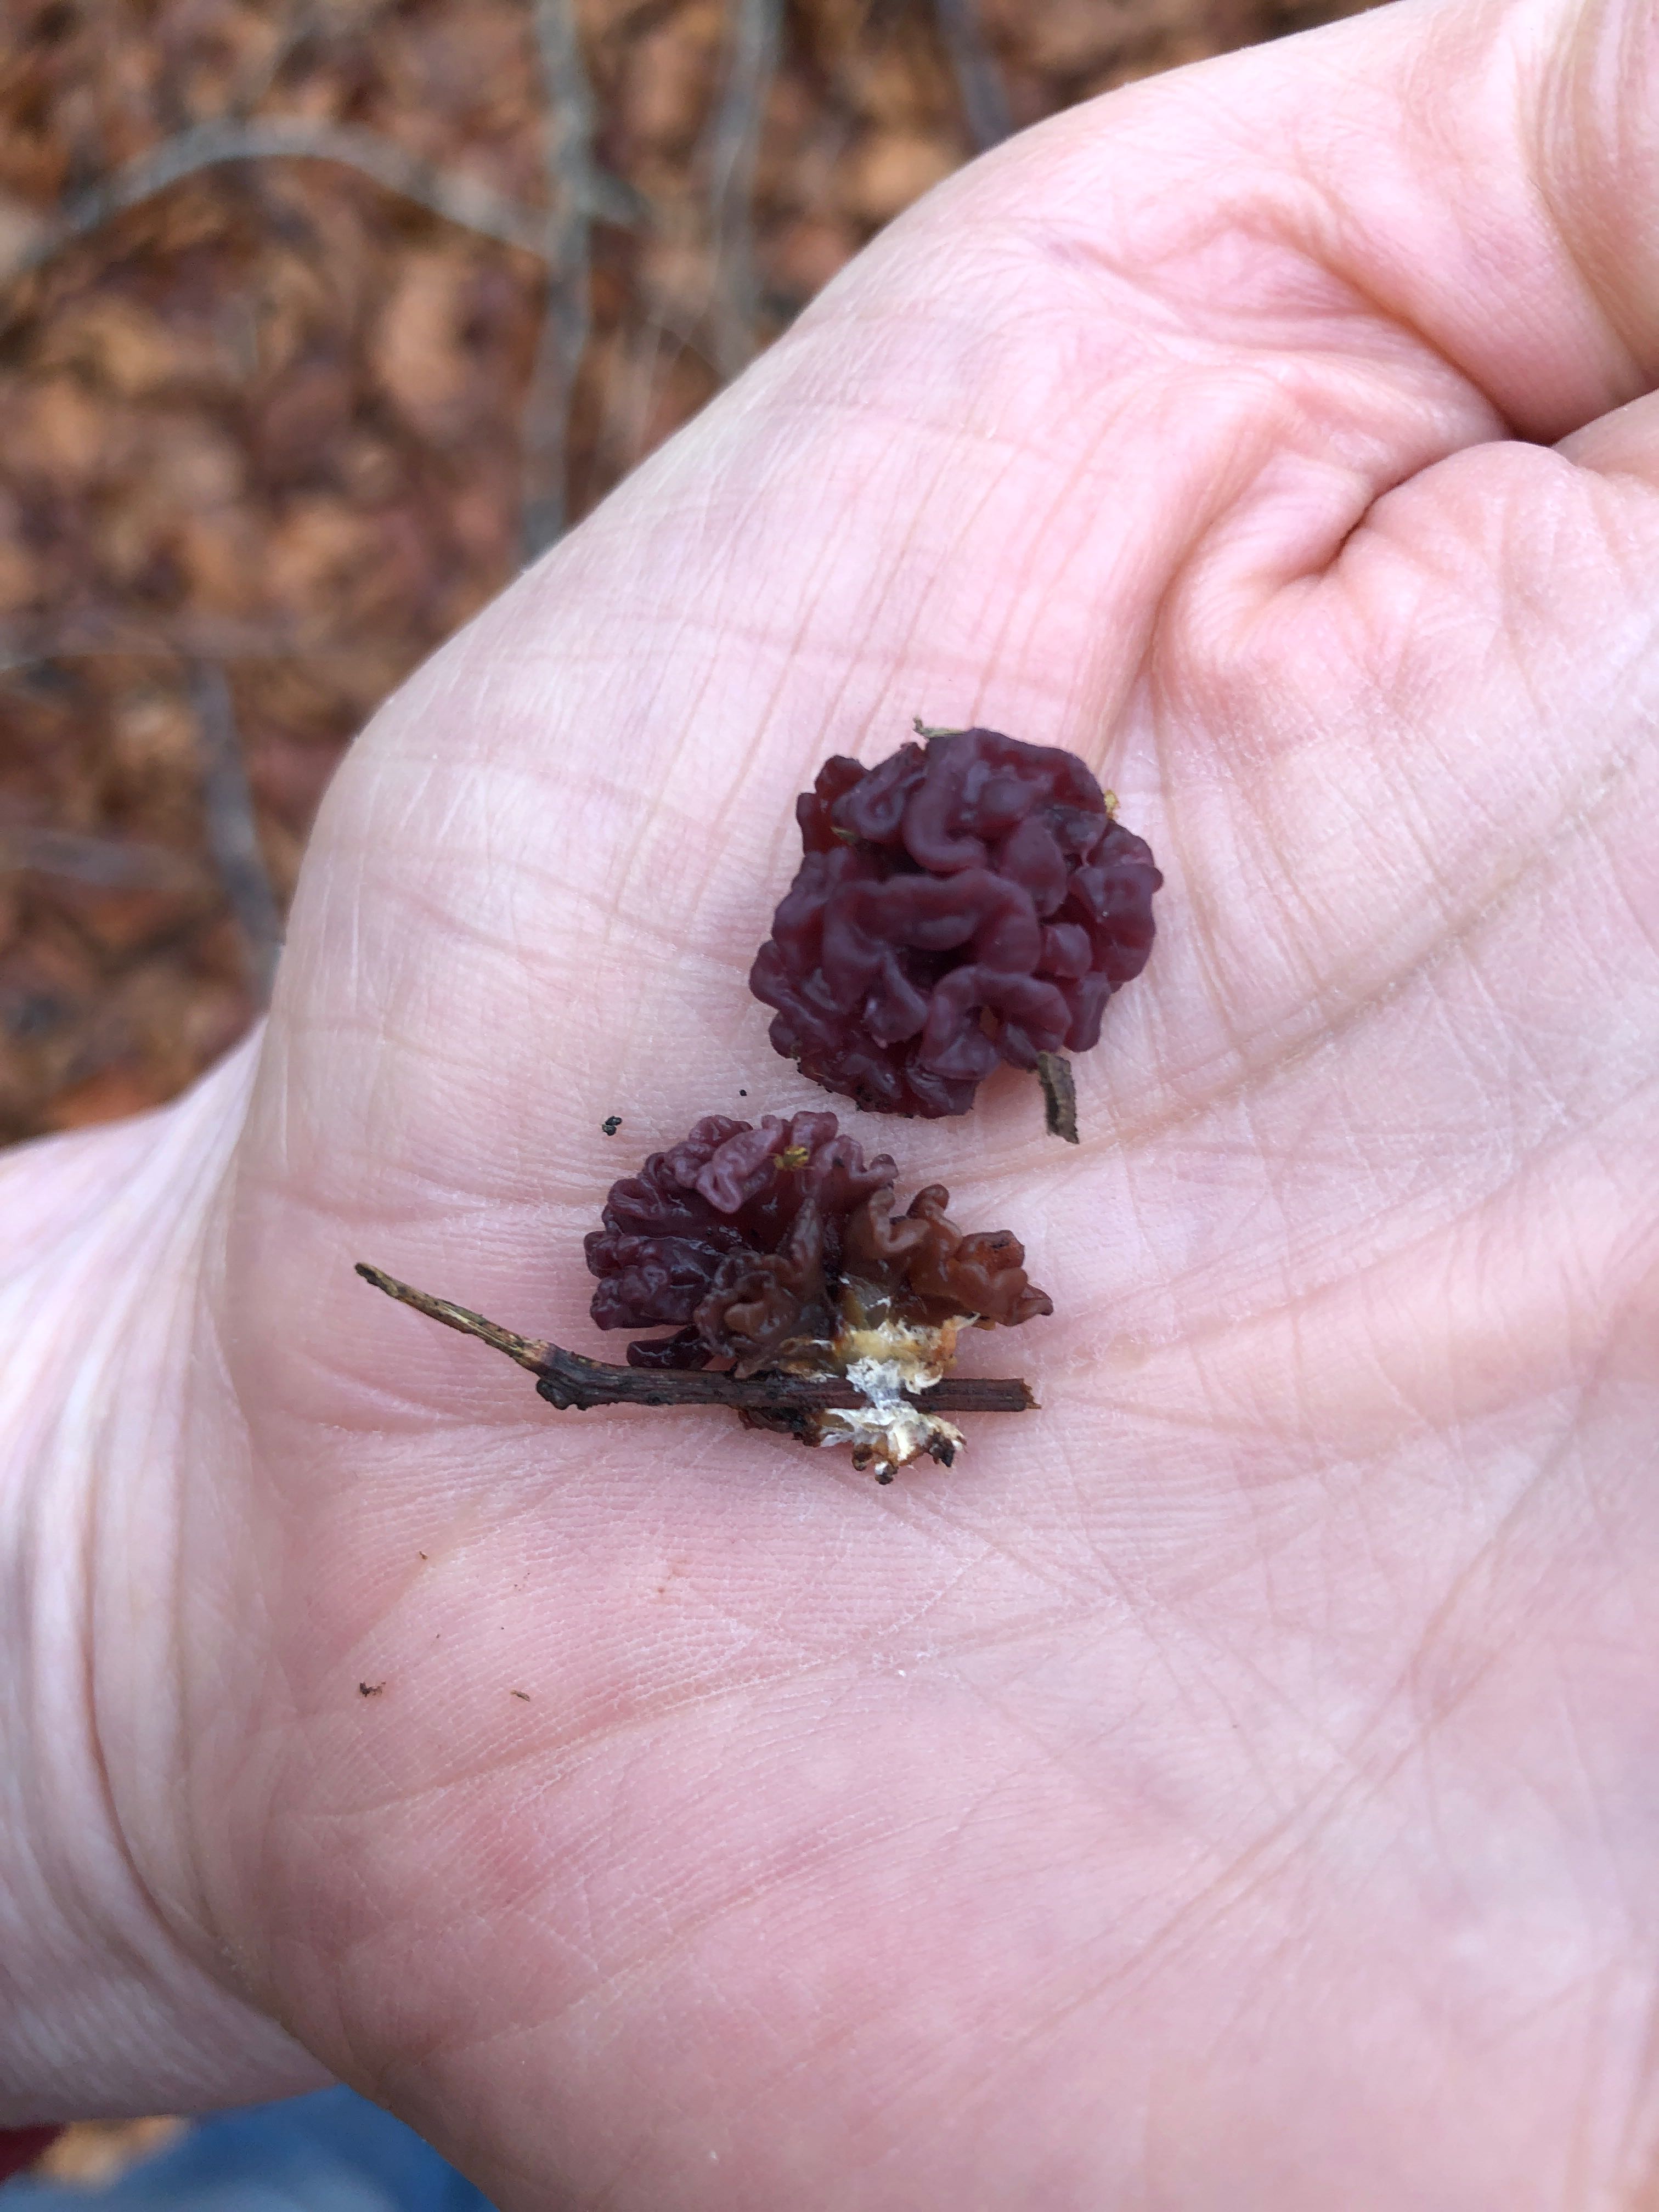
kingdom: Fungi
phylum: Ascomycota
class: Leotiomycetes
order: Helotiales
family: Gelatinodiscaceae
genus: Ascocoryne
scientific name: Ascocoryne sarcoides
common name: rødlilla sejskive
